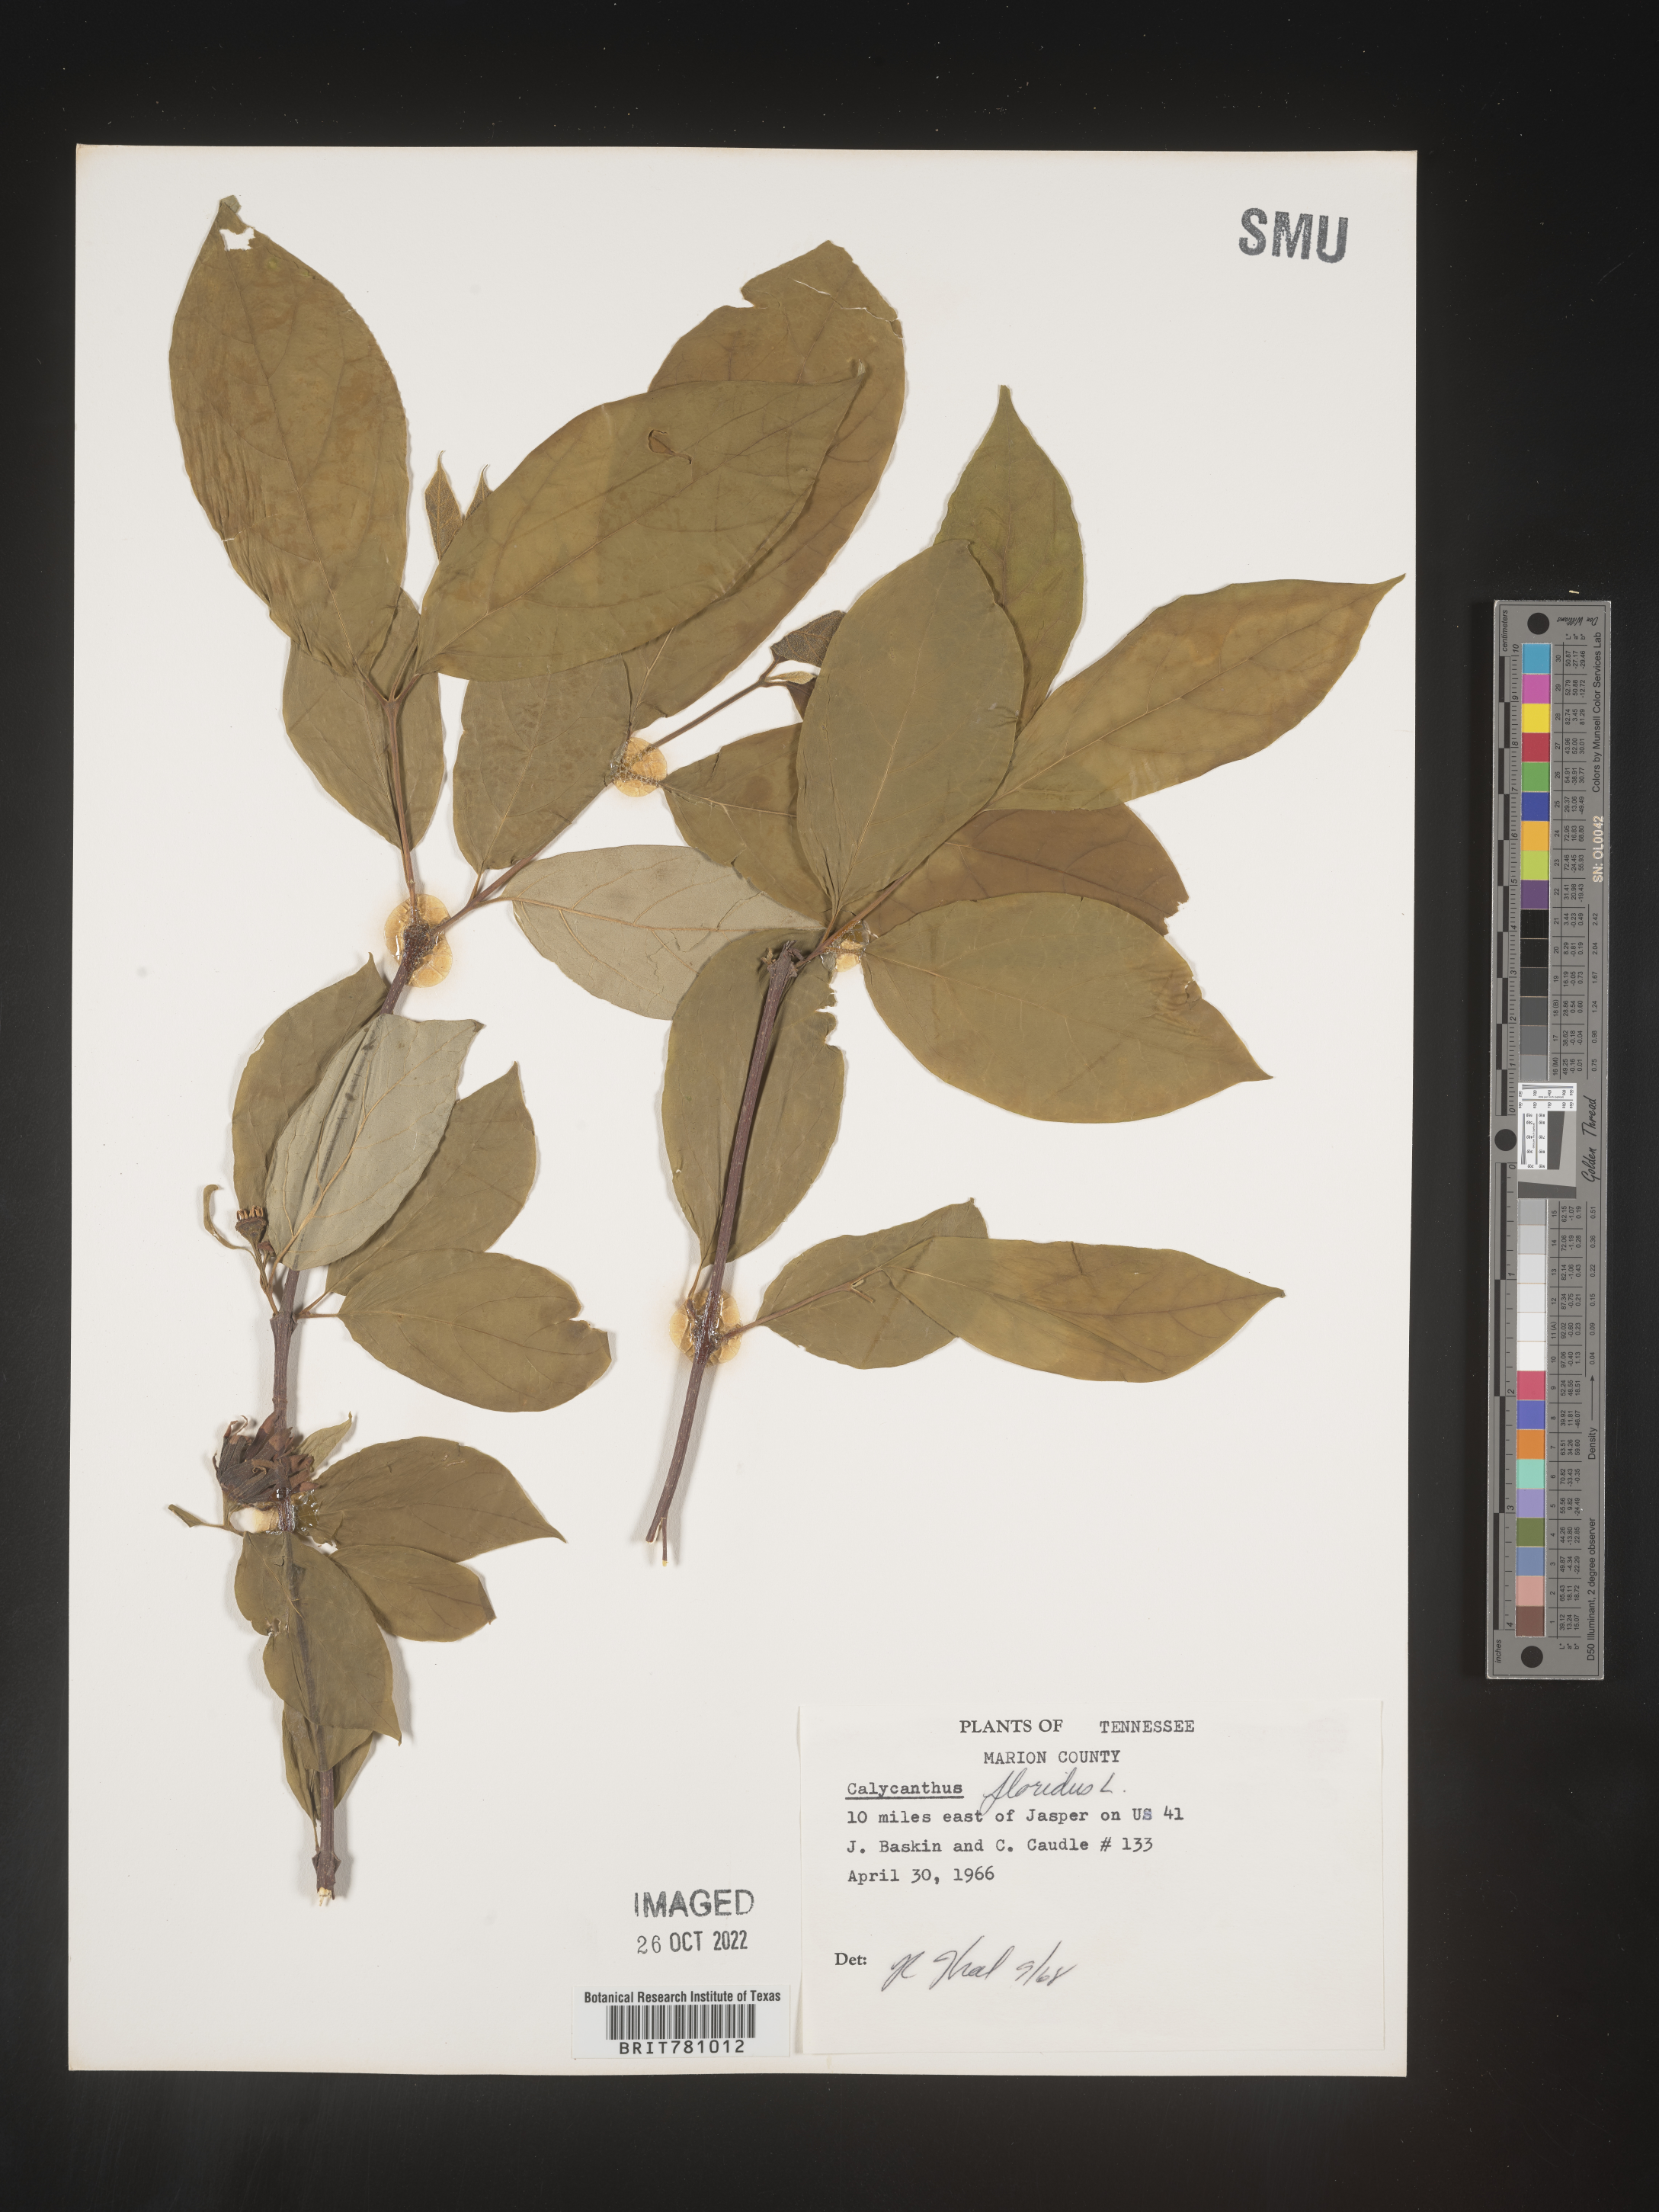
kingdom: Plantae
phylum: Tracheophyta
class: Magnoliopsida
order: Laurales
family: Calycanthaceae
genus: Calycanthus
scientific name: Calycanthus floridus
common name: Carolina-allspice
